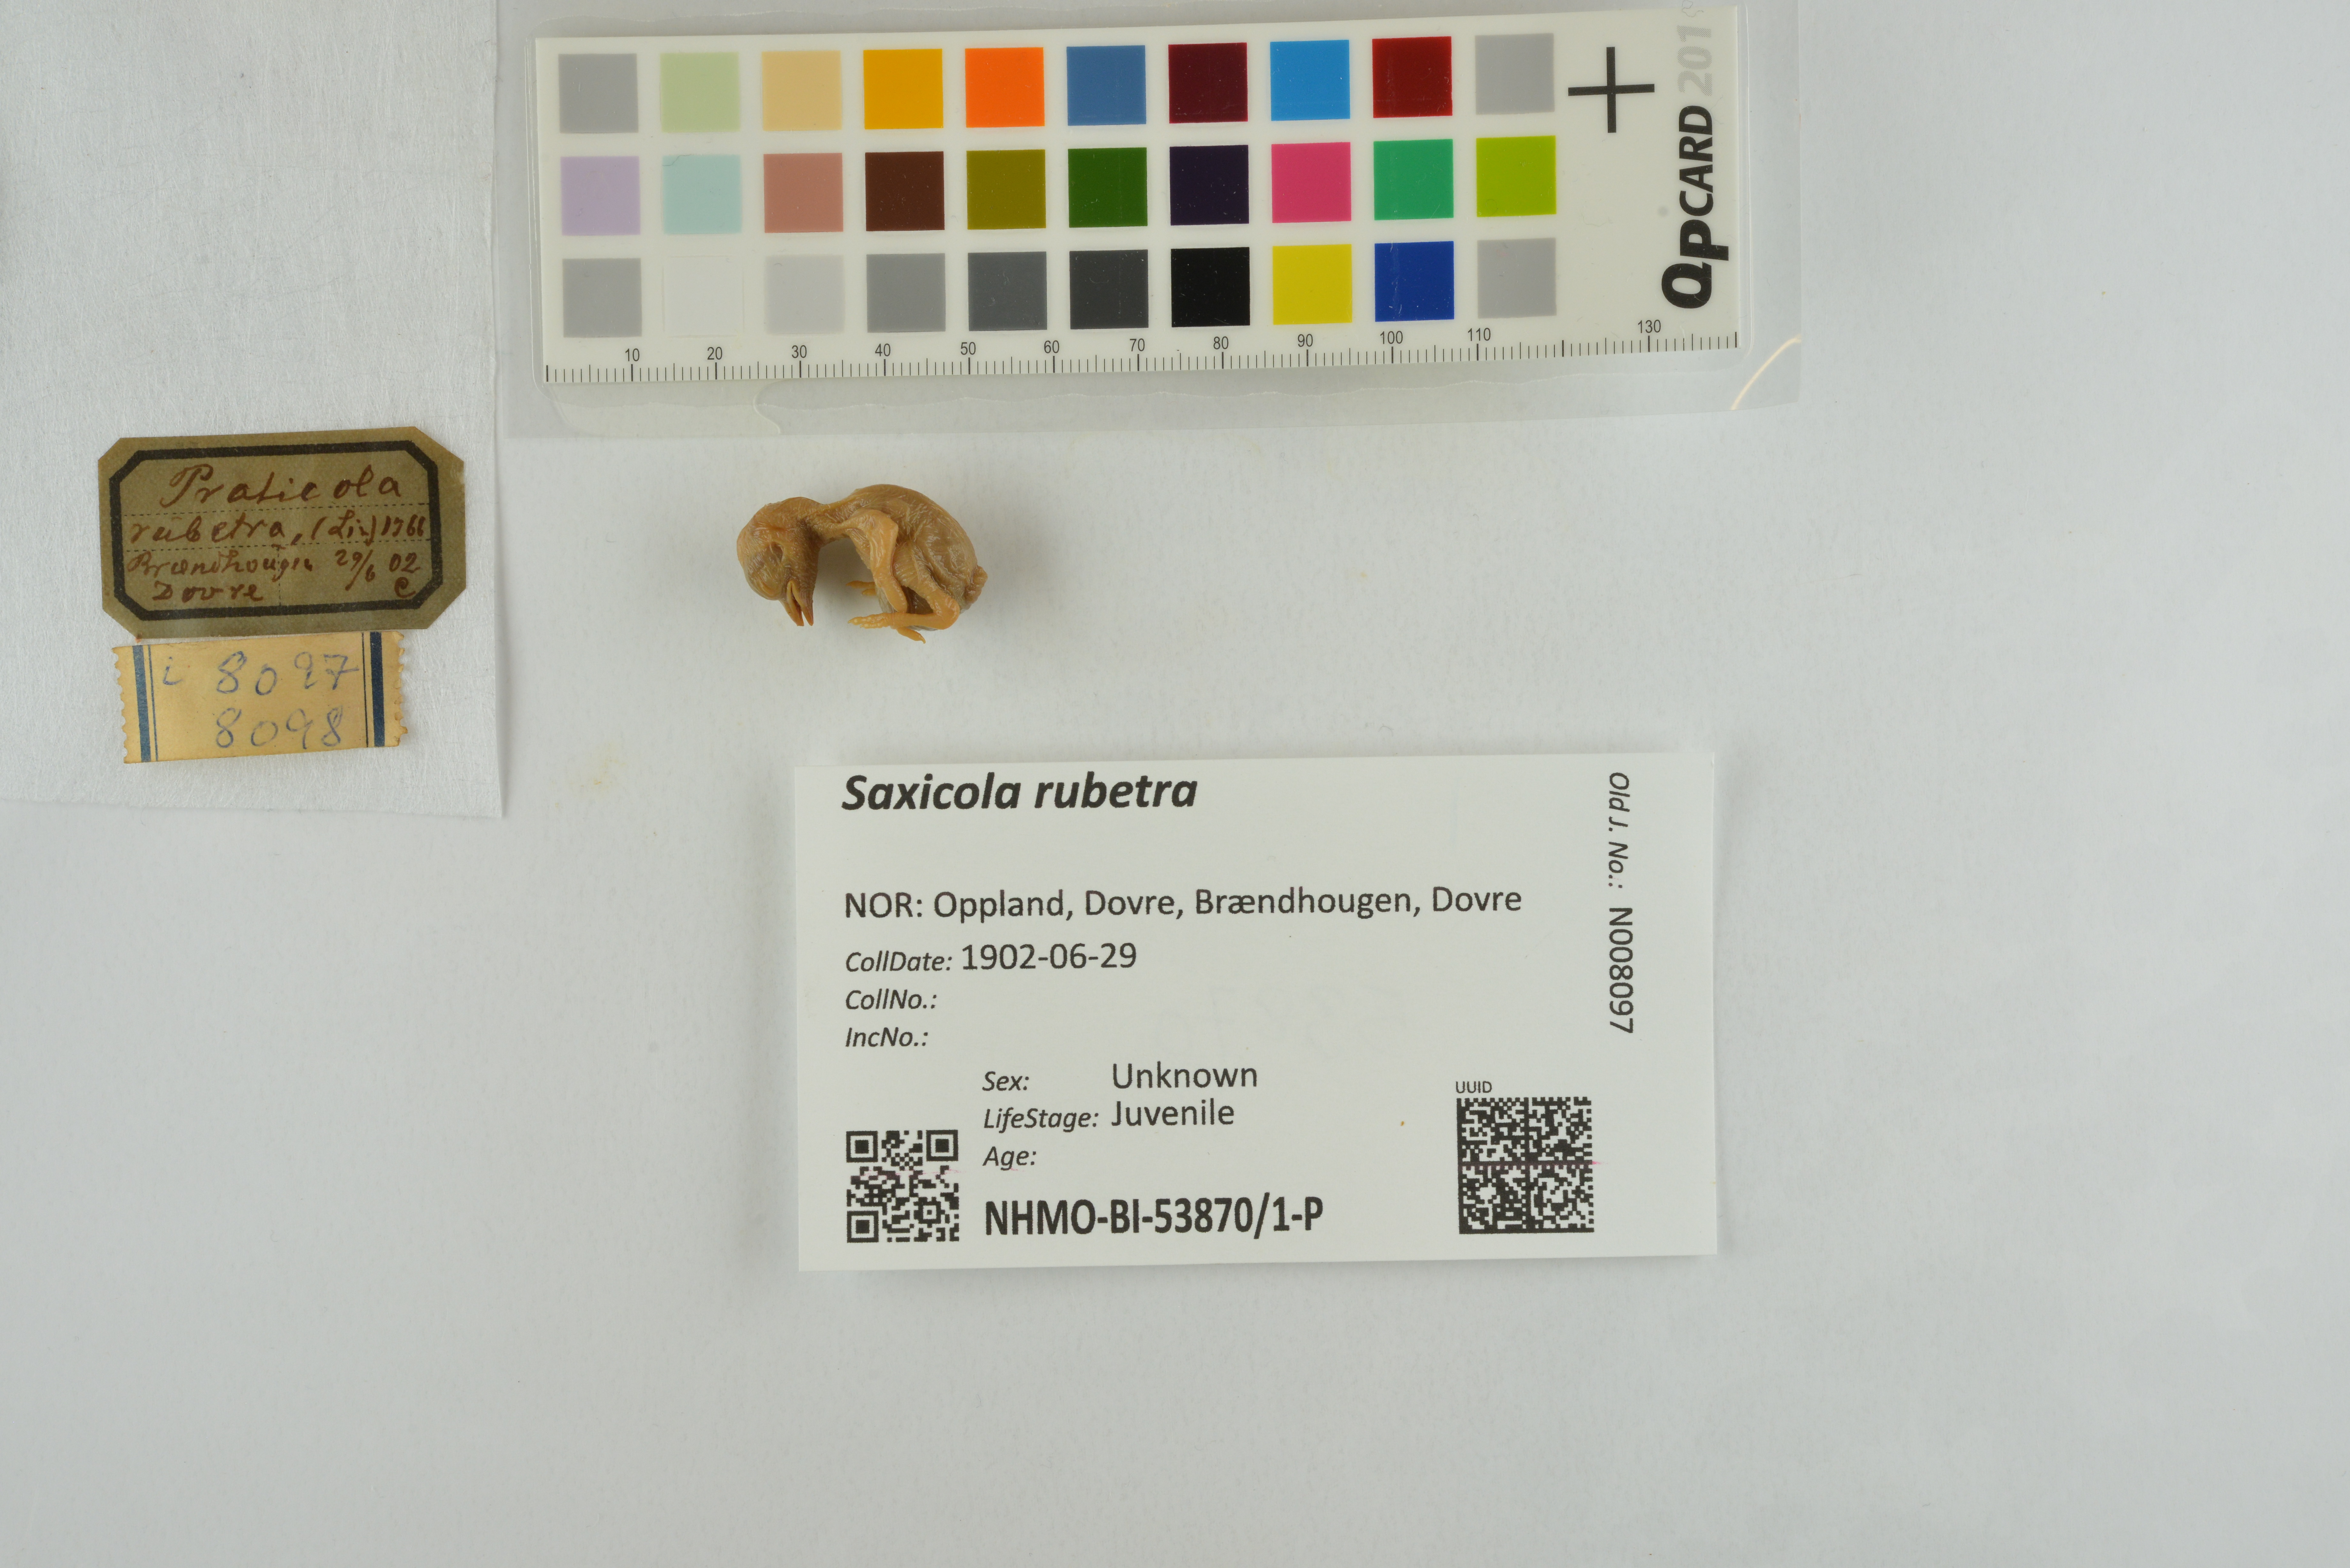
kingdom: Animalia
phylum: Chordata
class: Aves
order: Passeriformes
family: Muscicapidae
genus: Saxicola
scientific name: Saxicola rubetra
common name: Whinchat
